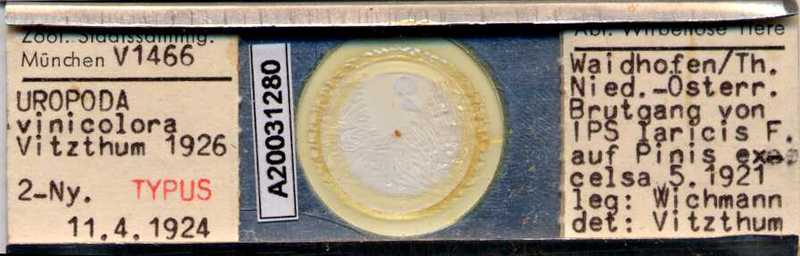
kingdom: Animalia
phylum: Arthropoda
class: Arachnida
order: Mesostigmata
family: Uropodidae
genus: Uroobovella
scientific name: Uroobovella vinicolora
